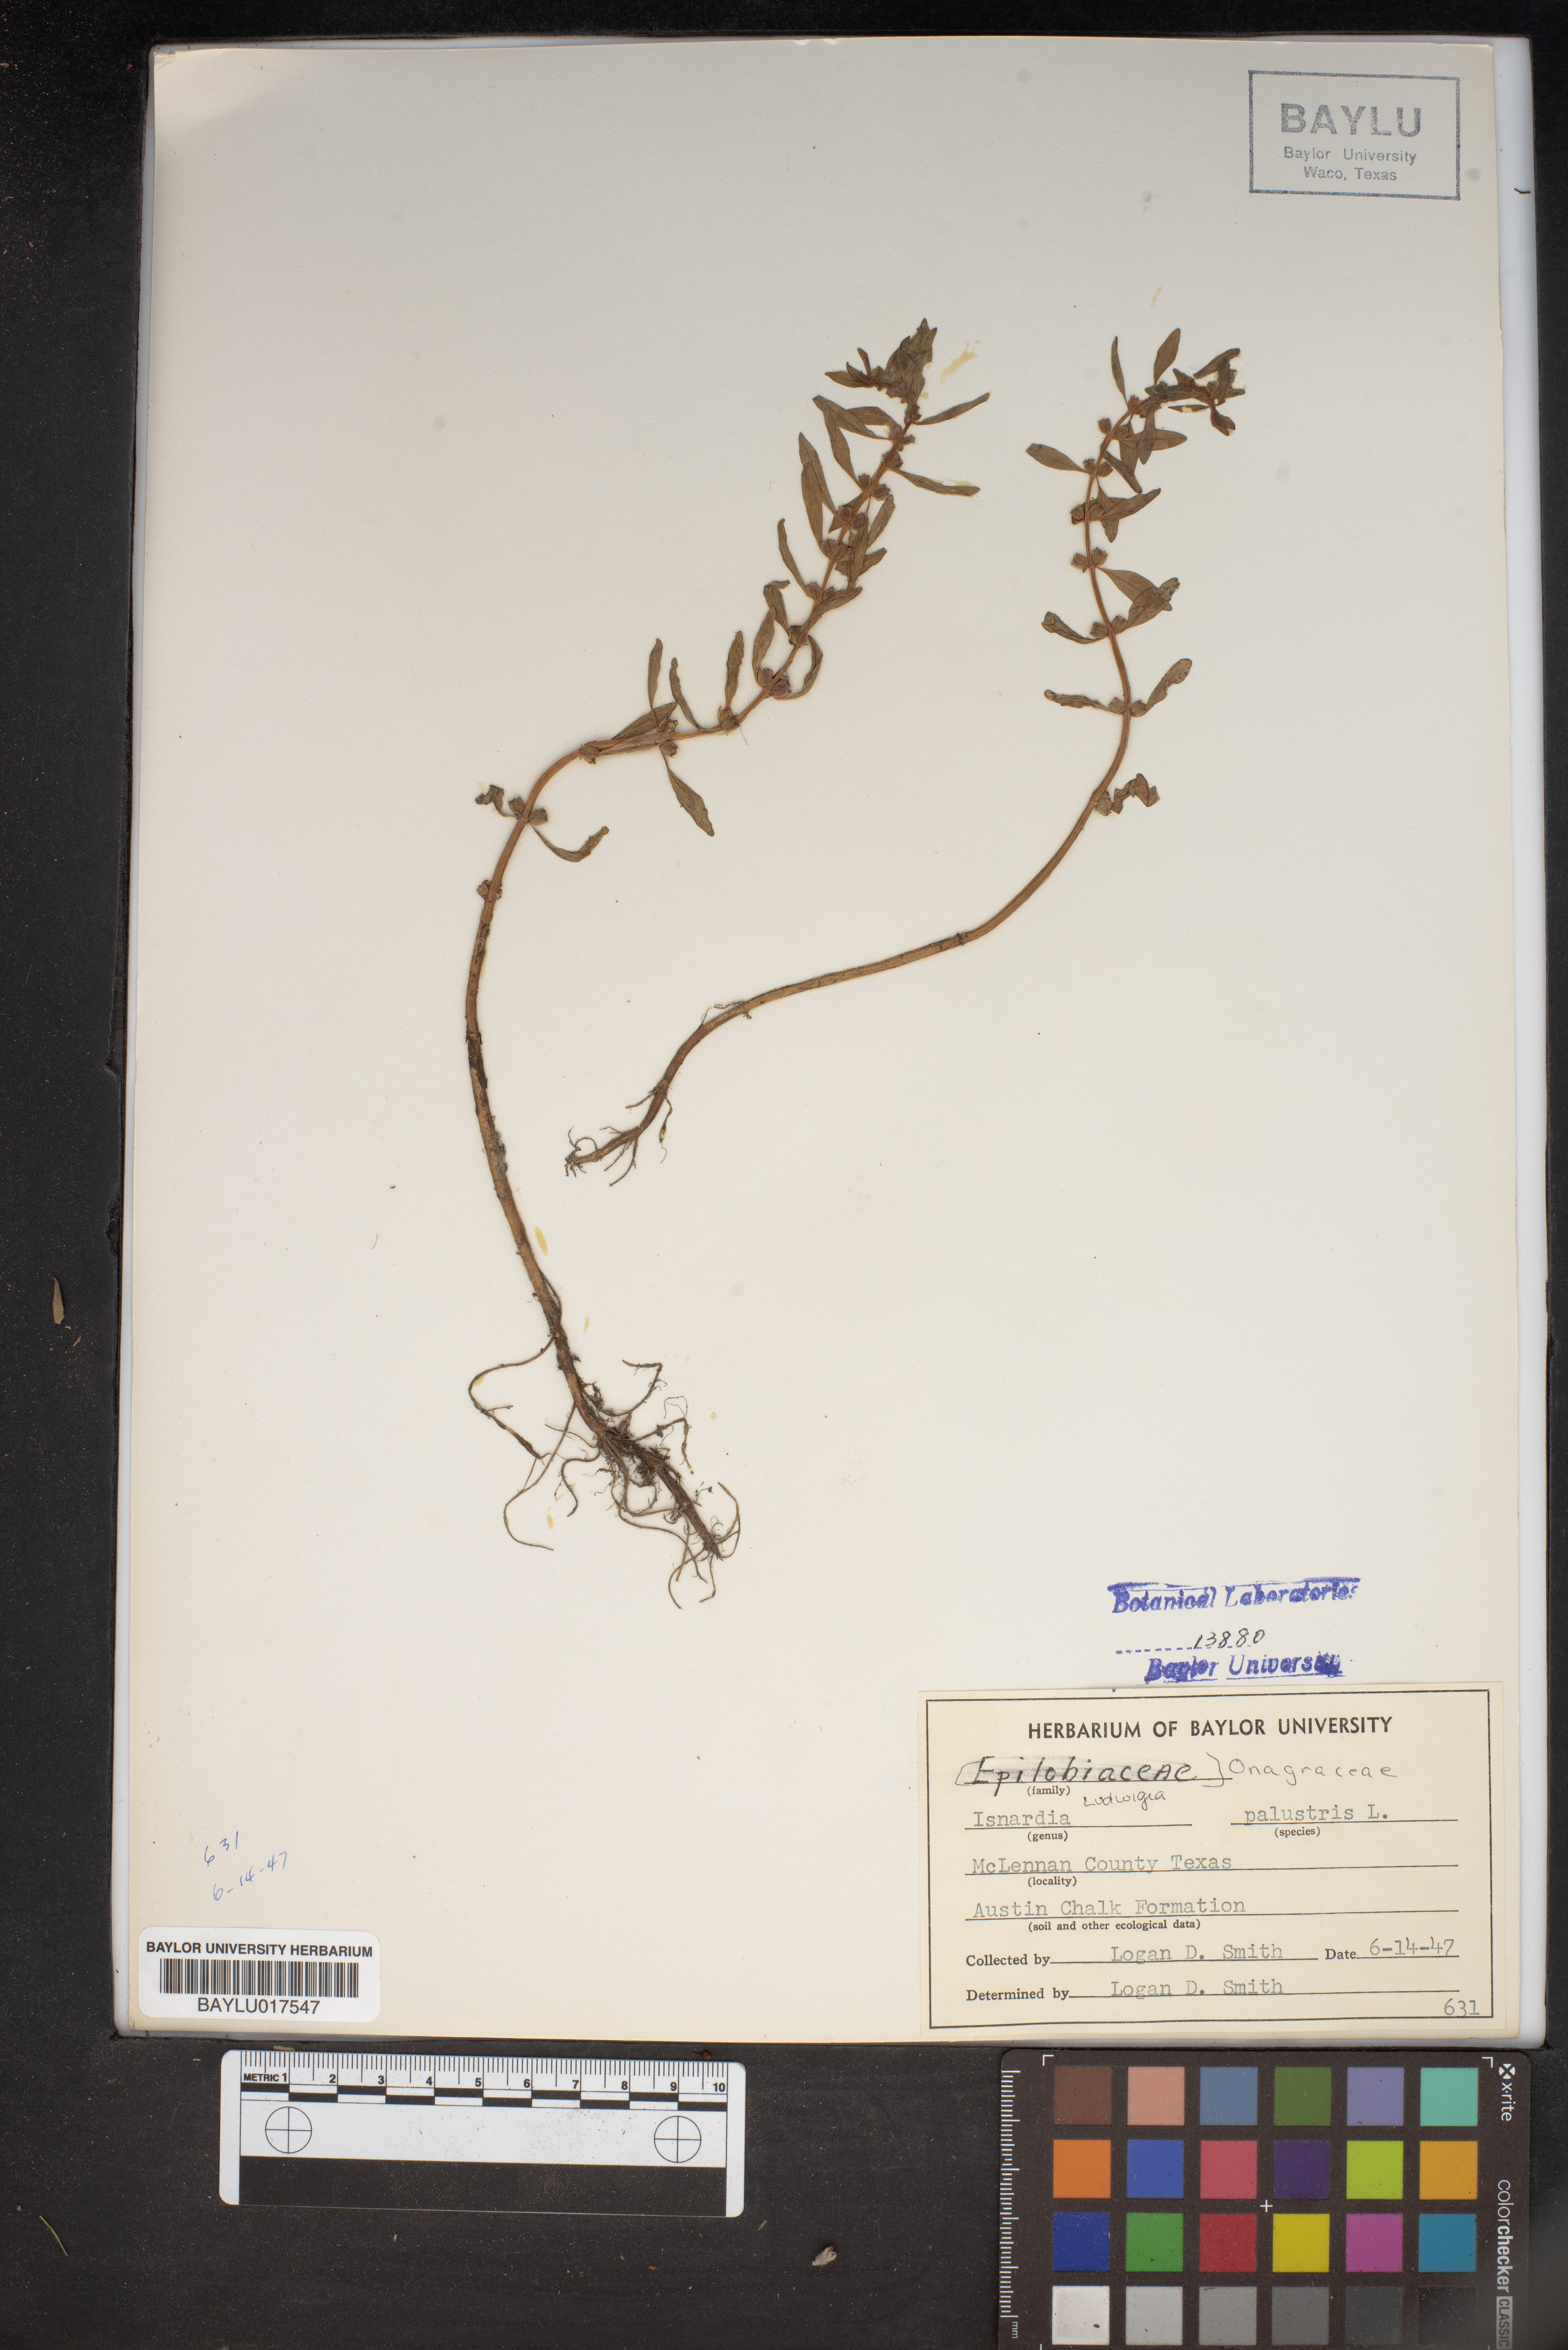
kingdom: Plantae
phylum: Tracheophyta
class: Magnoliopsida
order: Myrtales
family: Onagraceae
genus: Ludwigia
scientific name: Ludwigia palustris
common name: Hampshire-purslane
